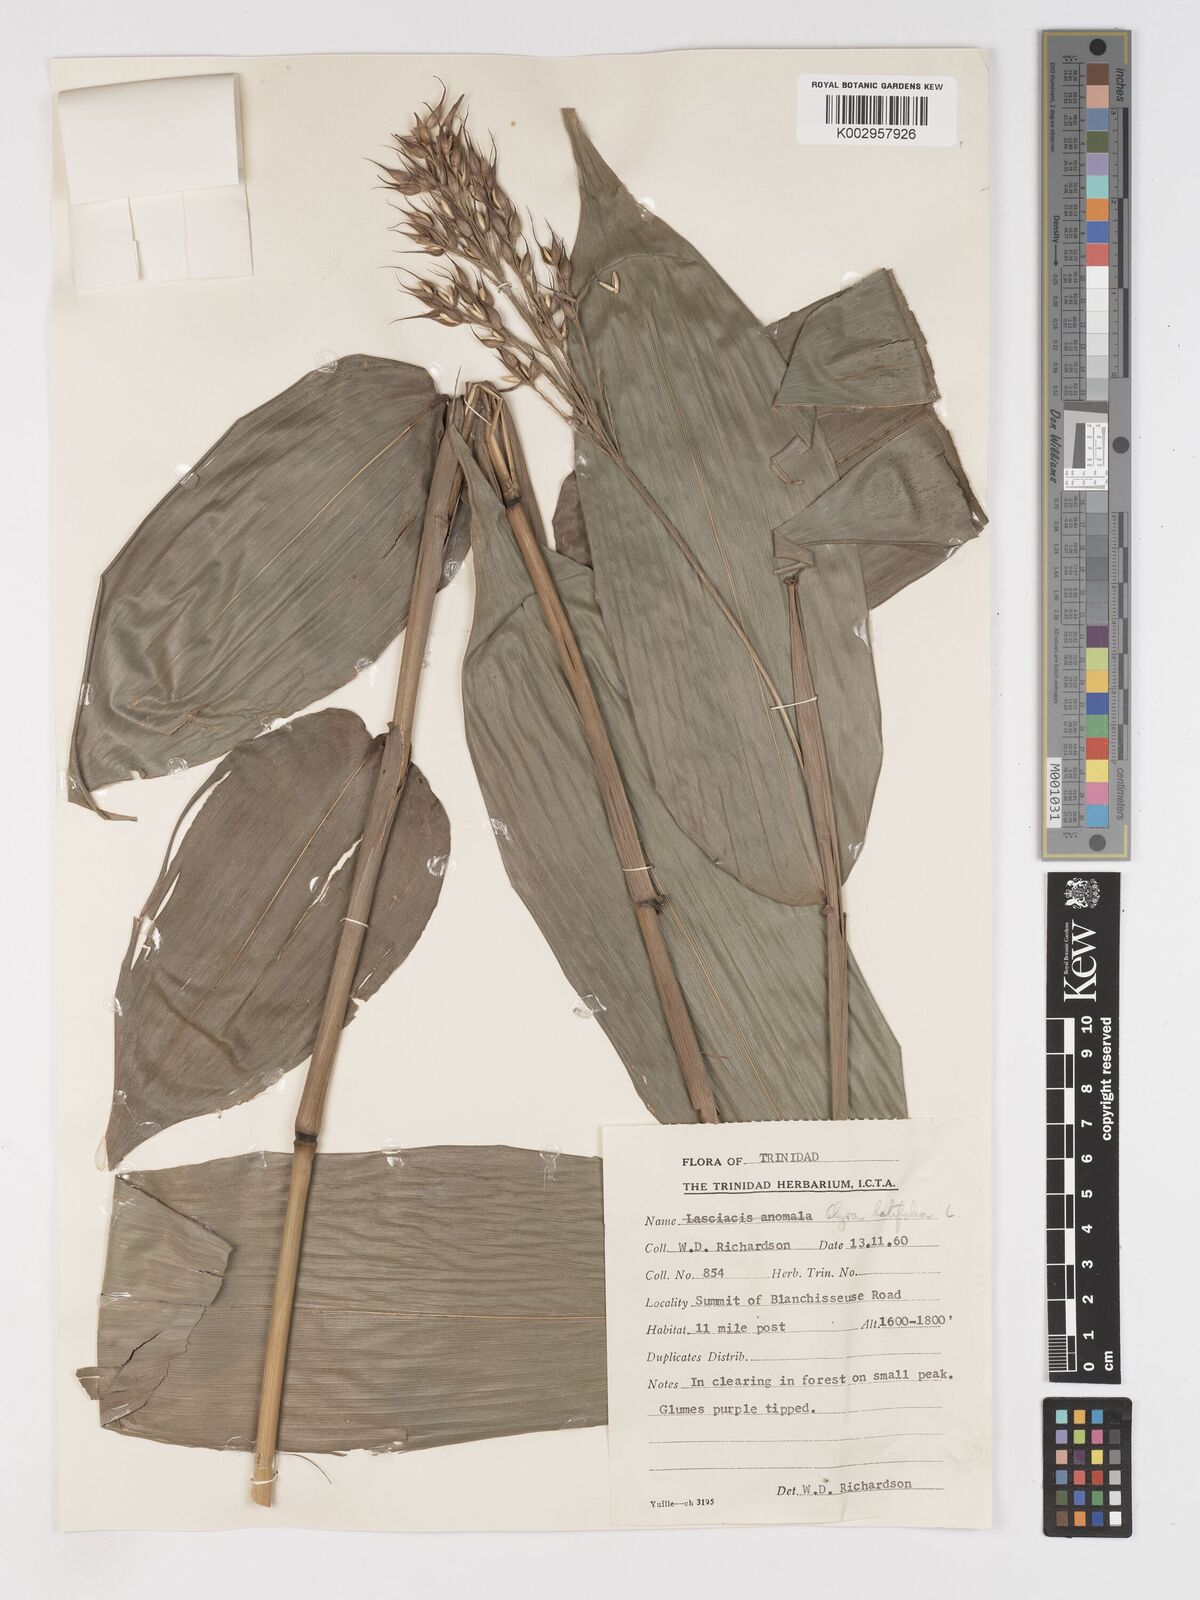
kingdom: Plantae
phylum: Tracheophyta
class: Liliopsida
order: Poales
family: Poaceae
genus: Olyra
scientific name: Olyra latifolia
